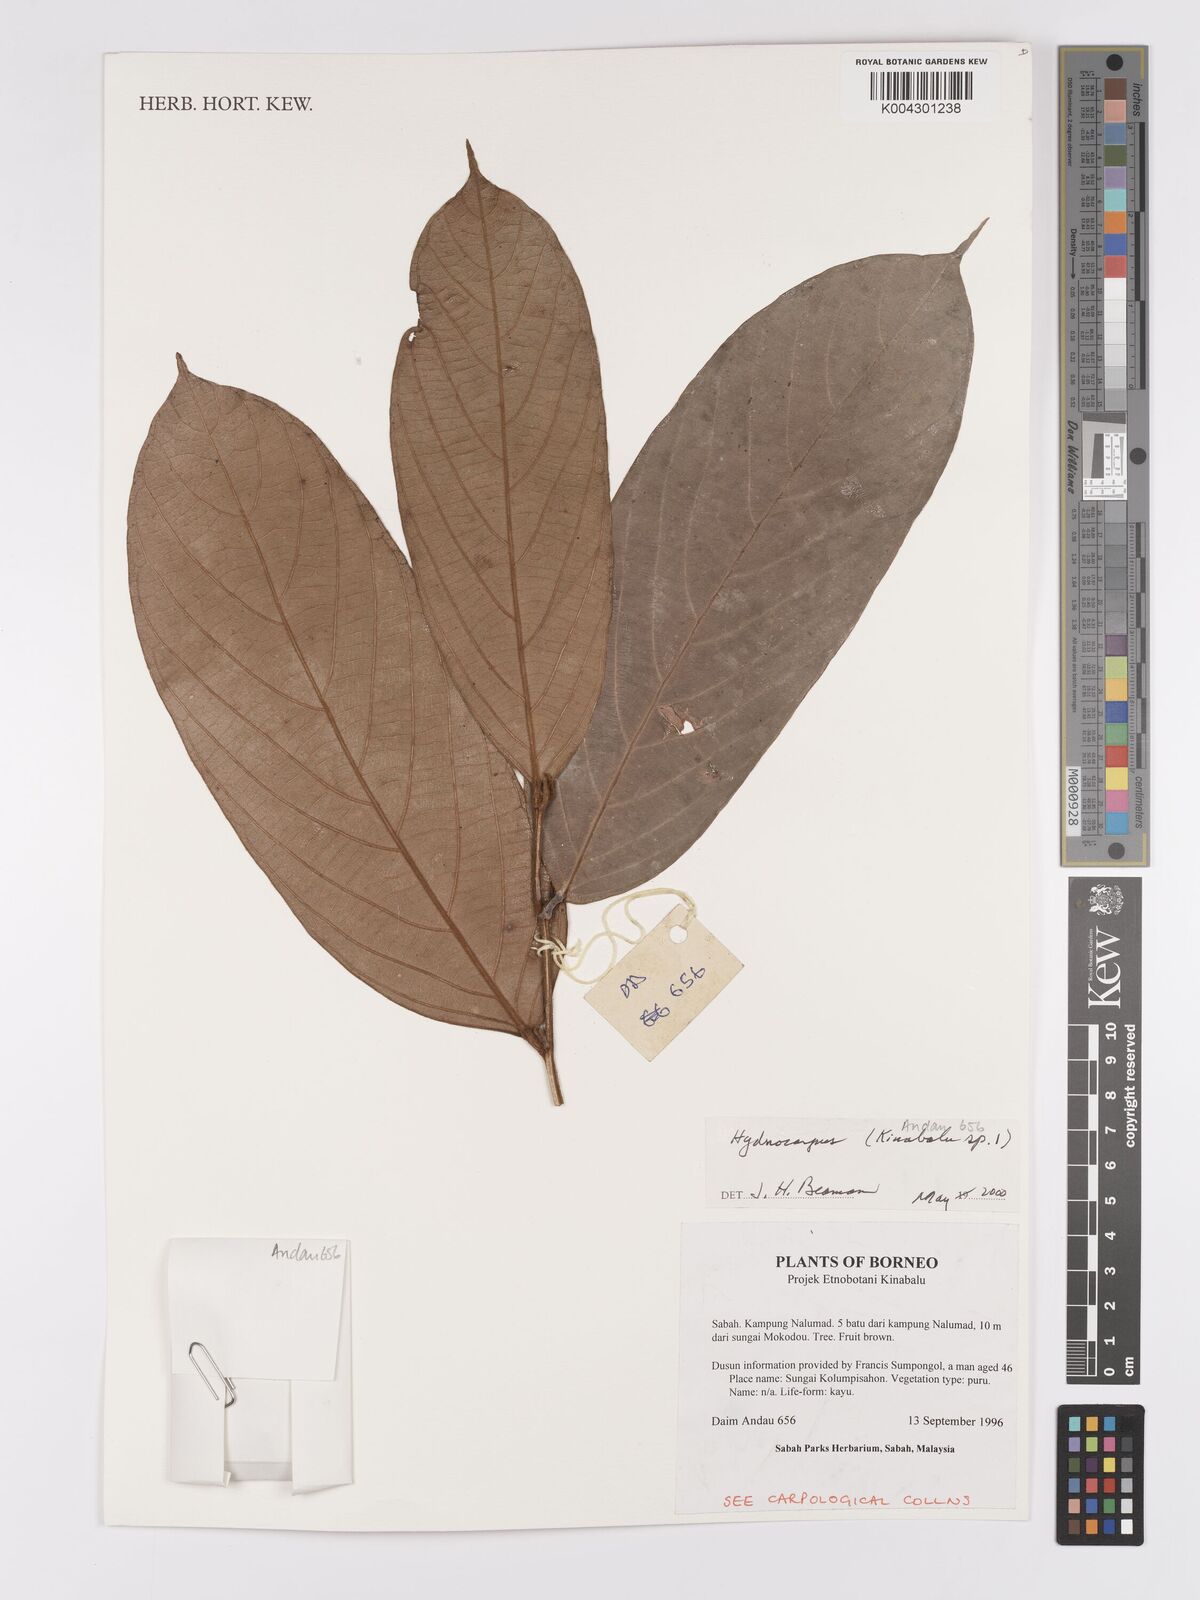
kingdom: Plantae
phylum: Tracheophyta
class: Magnoliopsida
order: Malpighiales
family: Achariaceae
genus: Hydnocarpus
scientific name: Hydnocarpus
